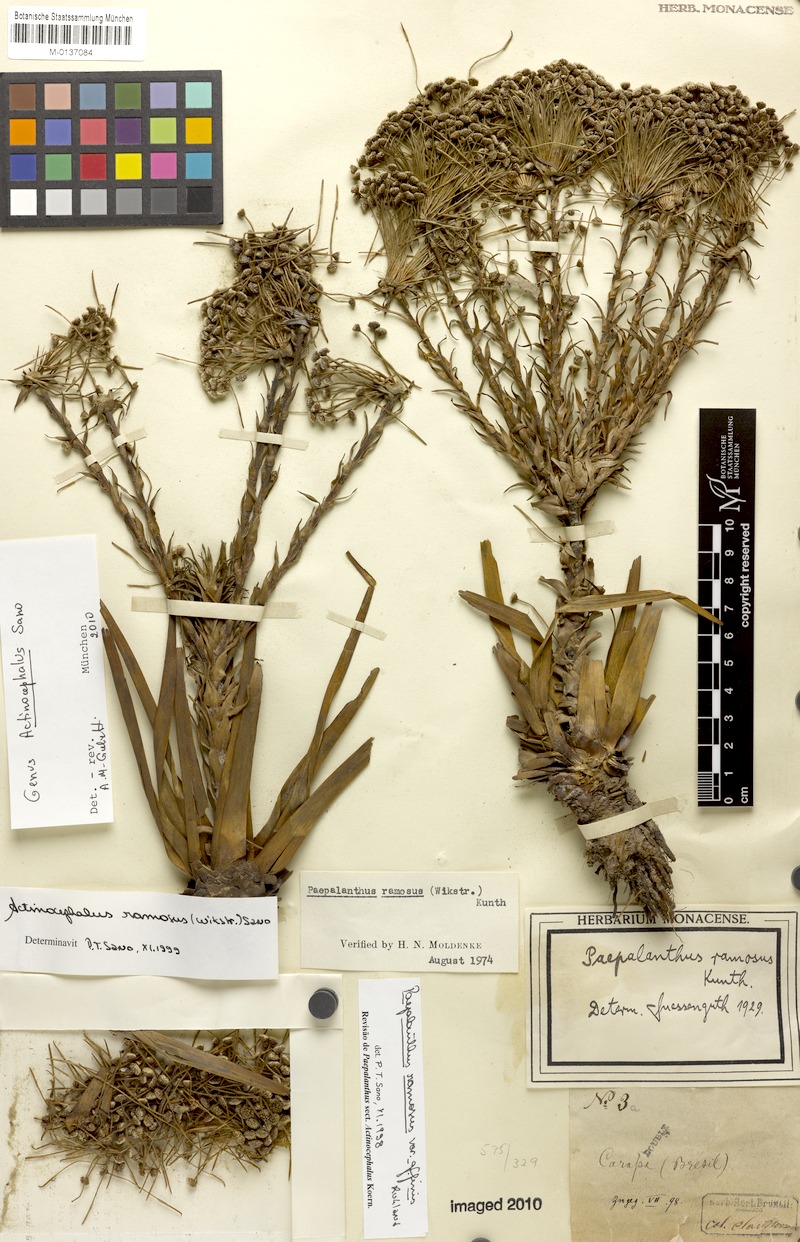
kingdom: Plantae
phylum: Tracheophyta
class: Liliopsida
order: Poales
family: Eriocaulaceae
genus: Paepalanthus
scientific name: Paepalanthus ramosus
